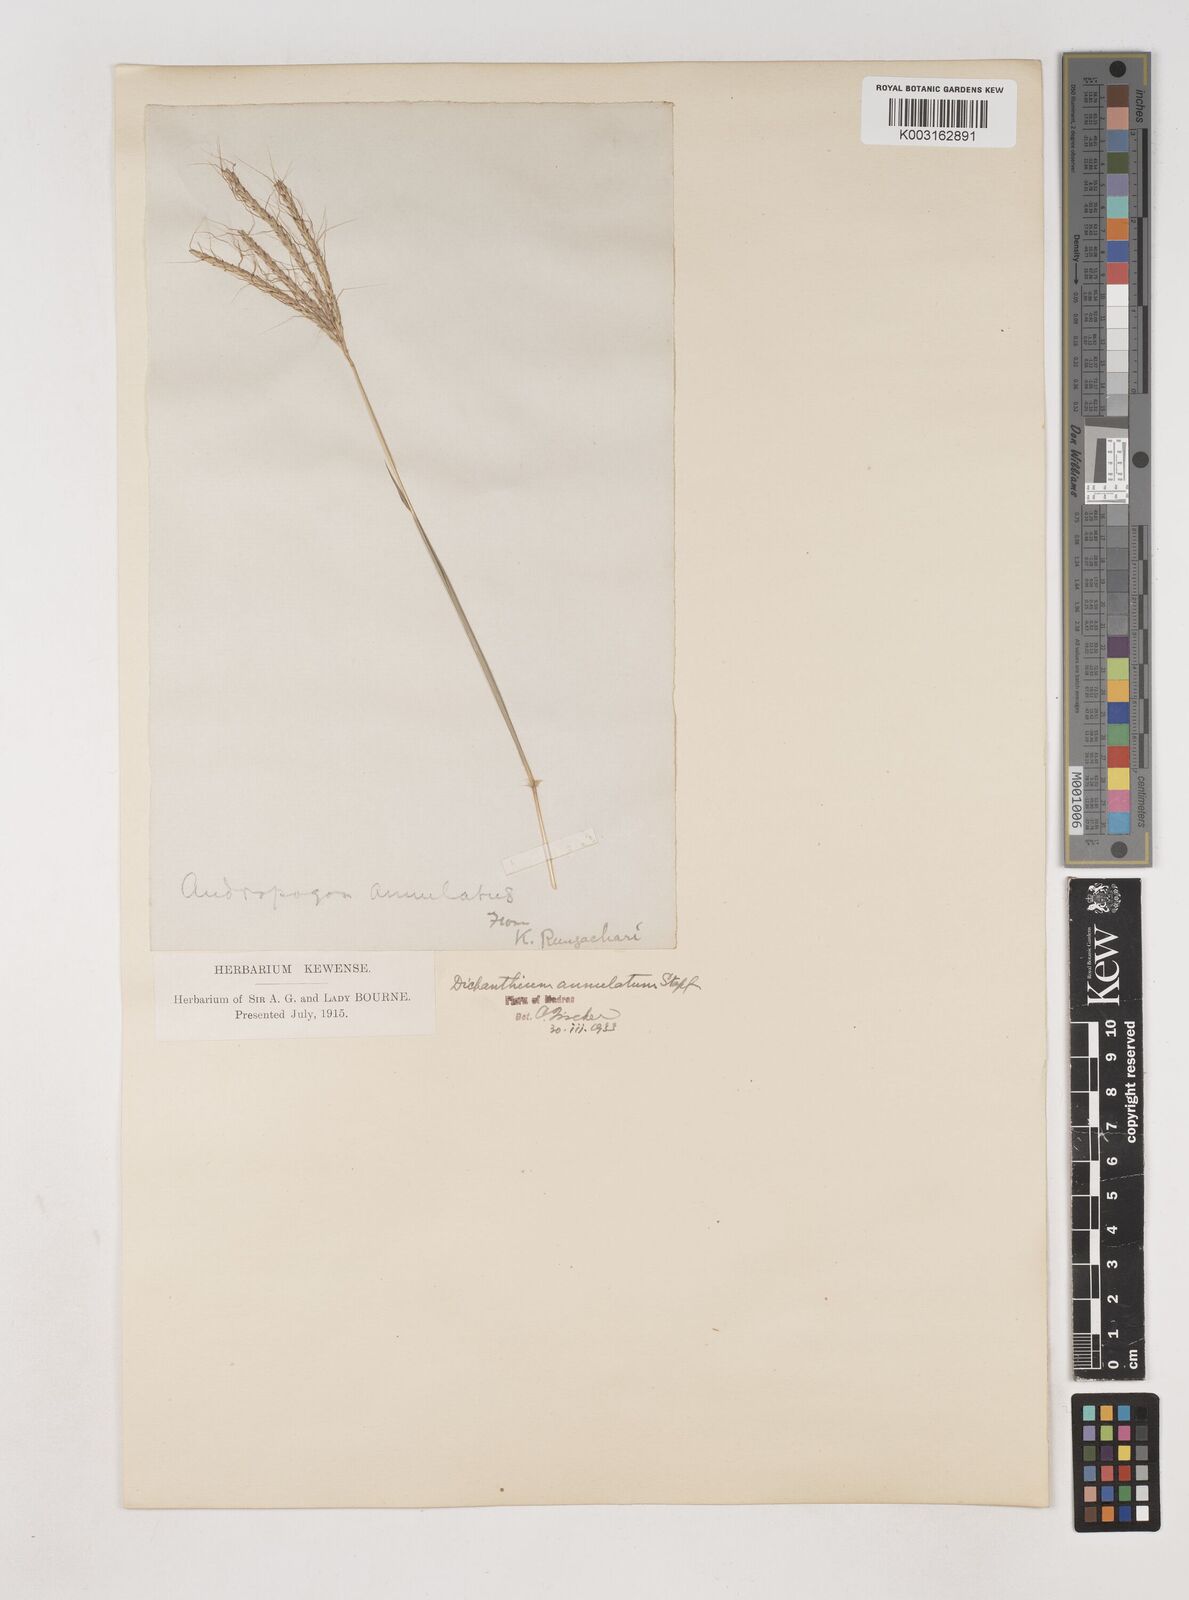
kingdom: Plantae
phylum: Tracheophyta
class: Liliopsida
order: Poales
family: Poaceae
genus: Dichanthium
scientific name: Dichanthium annulatum
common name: Kleberg's bluestem
